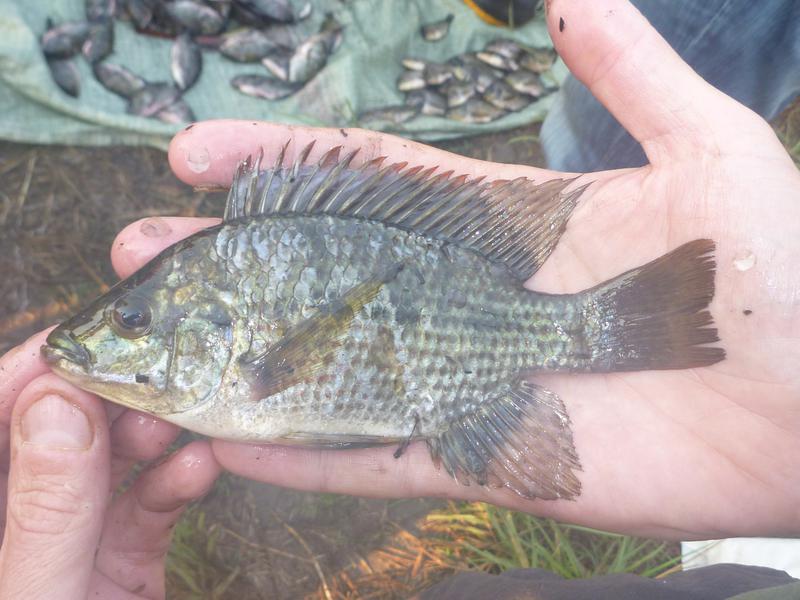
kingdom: Animalia
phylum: Chordata
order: Perciformes
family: Cichlidae
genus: Oreochromis
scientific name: Oreochromis karomo
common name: Karomo
